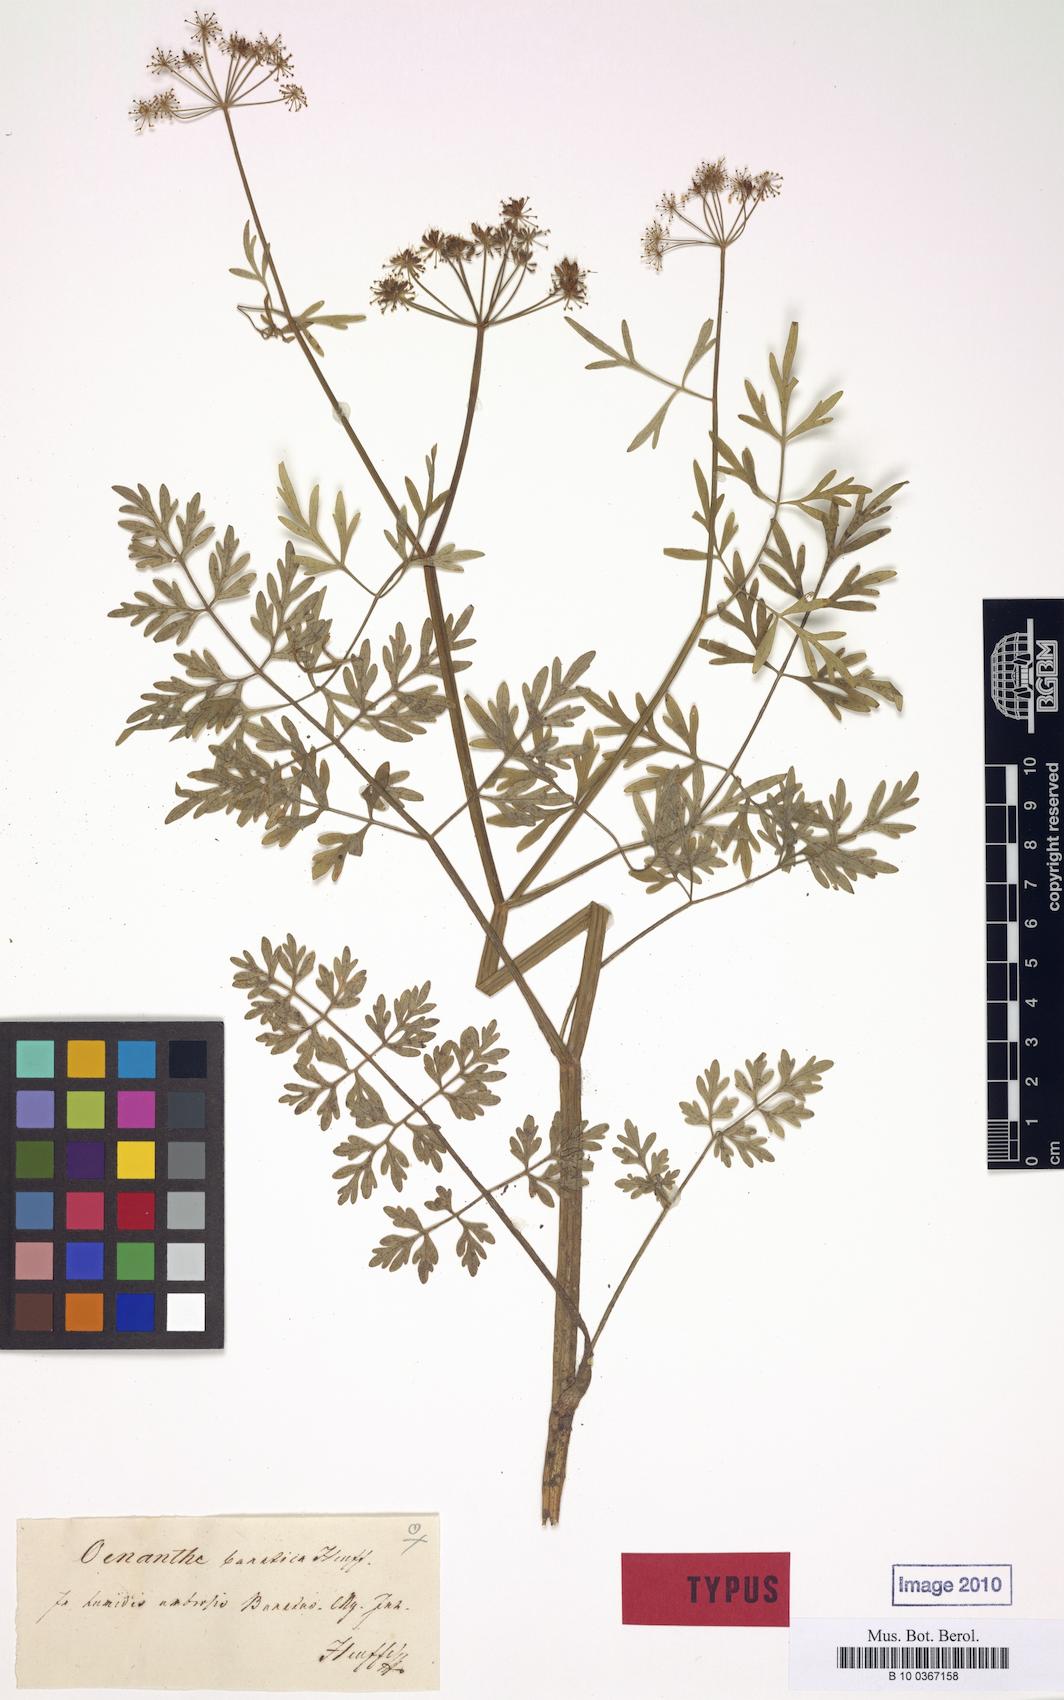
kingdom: Plantae
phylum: Tracheophyta
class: Magnoliopsida
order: Apiales
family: Apiaceae
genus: Oenanthe
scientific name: Oenanthe banatica
